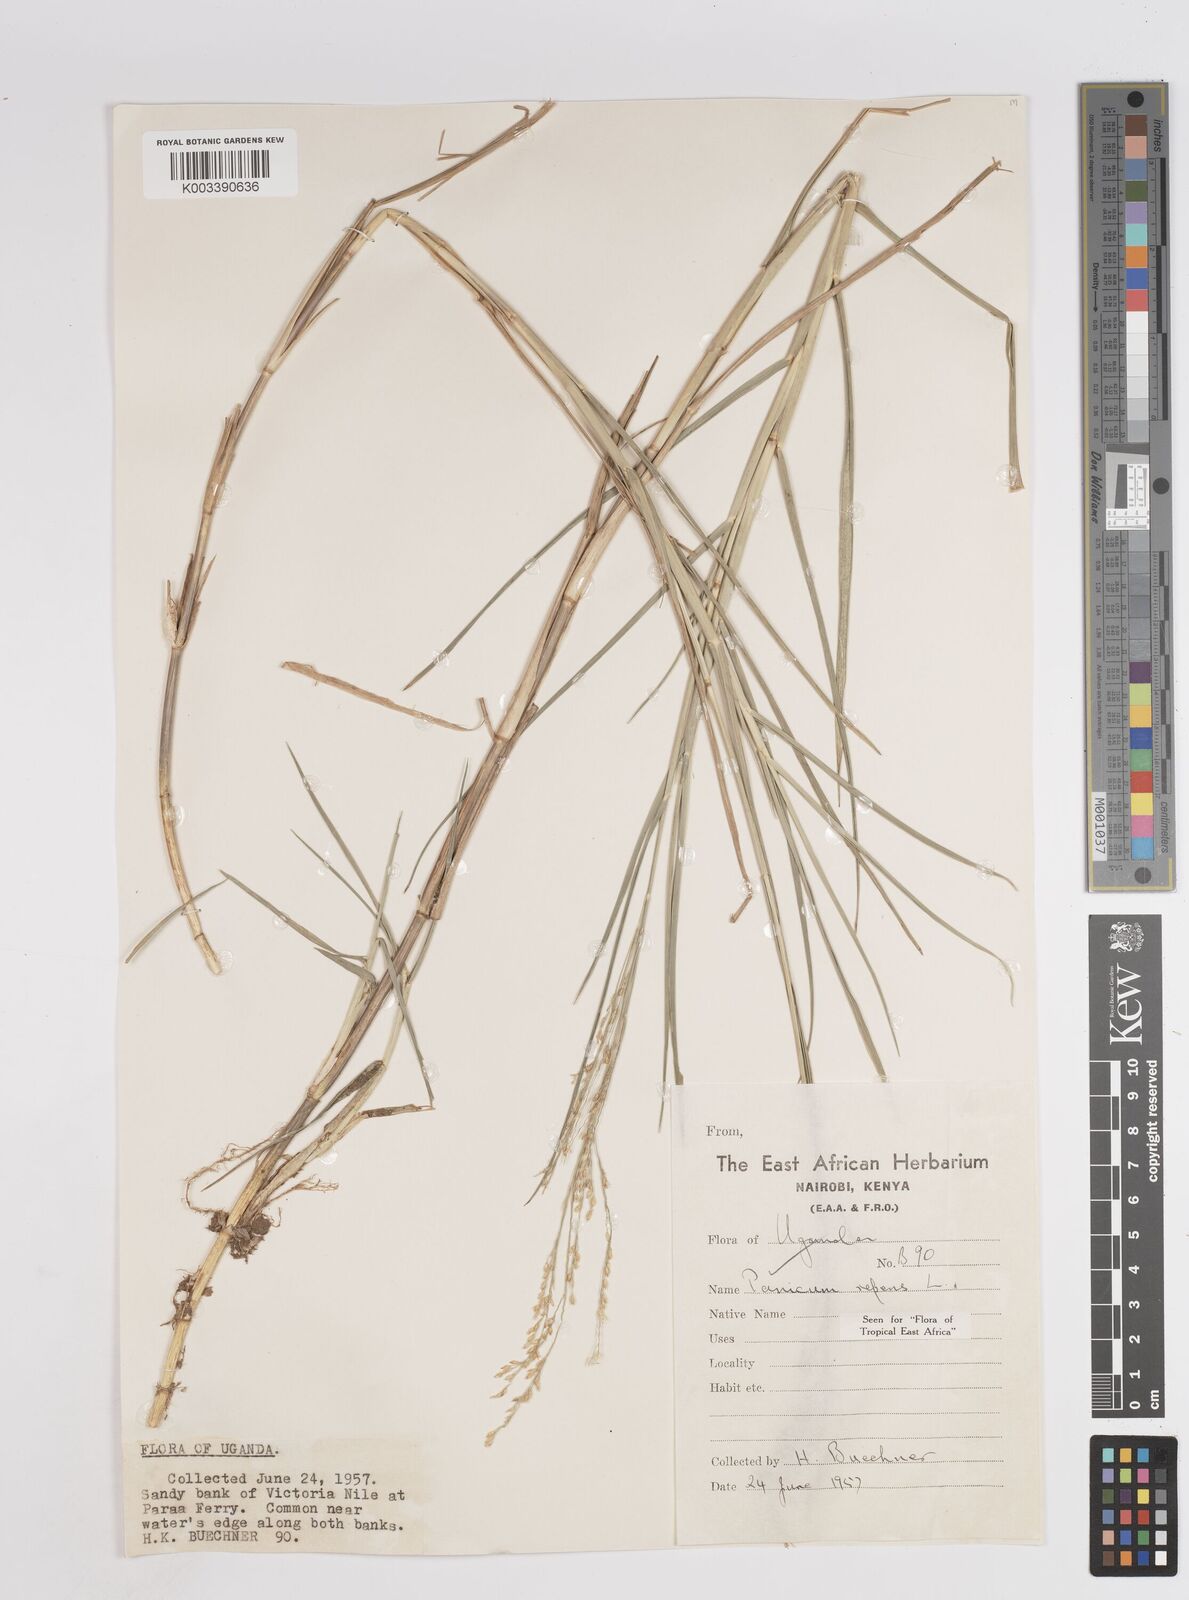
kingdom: Plantae
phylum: Tracheophyta
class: Liliopsida
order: Poales
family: Poaceae
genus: Panicum
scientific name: Panicum repens
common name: Torpedo grass
